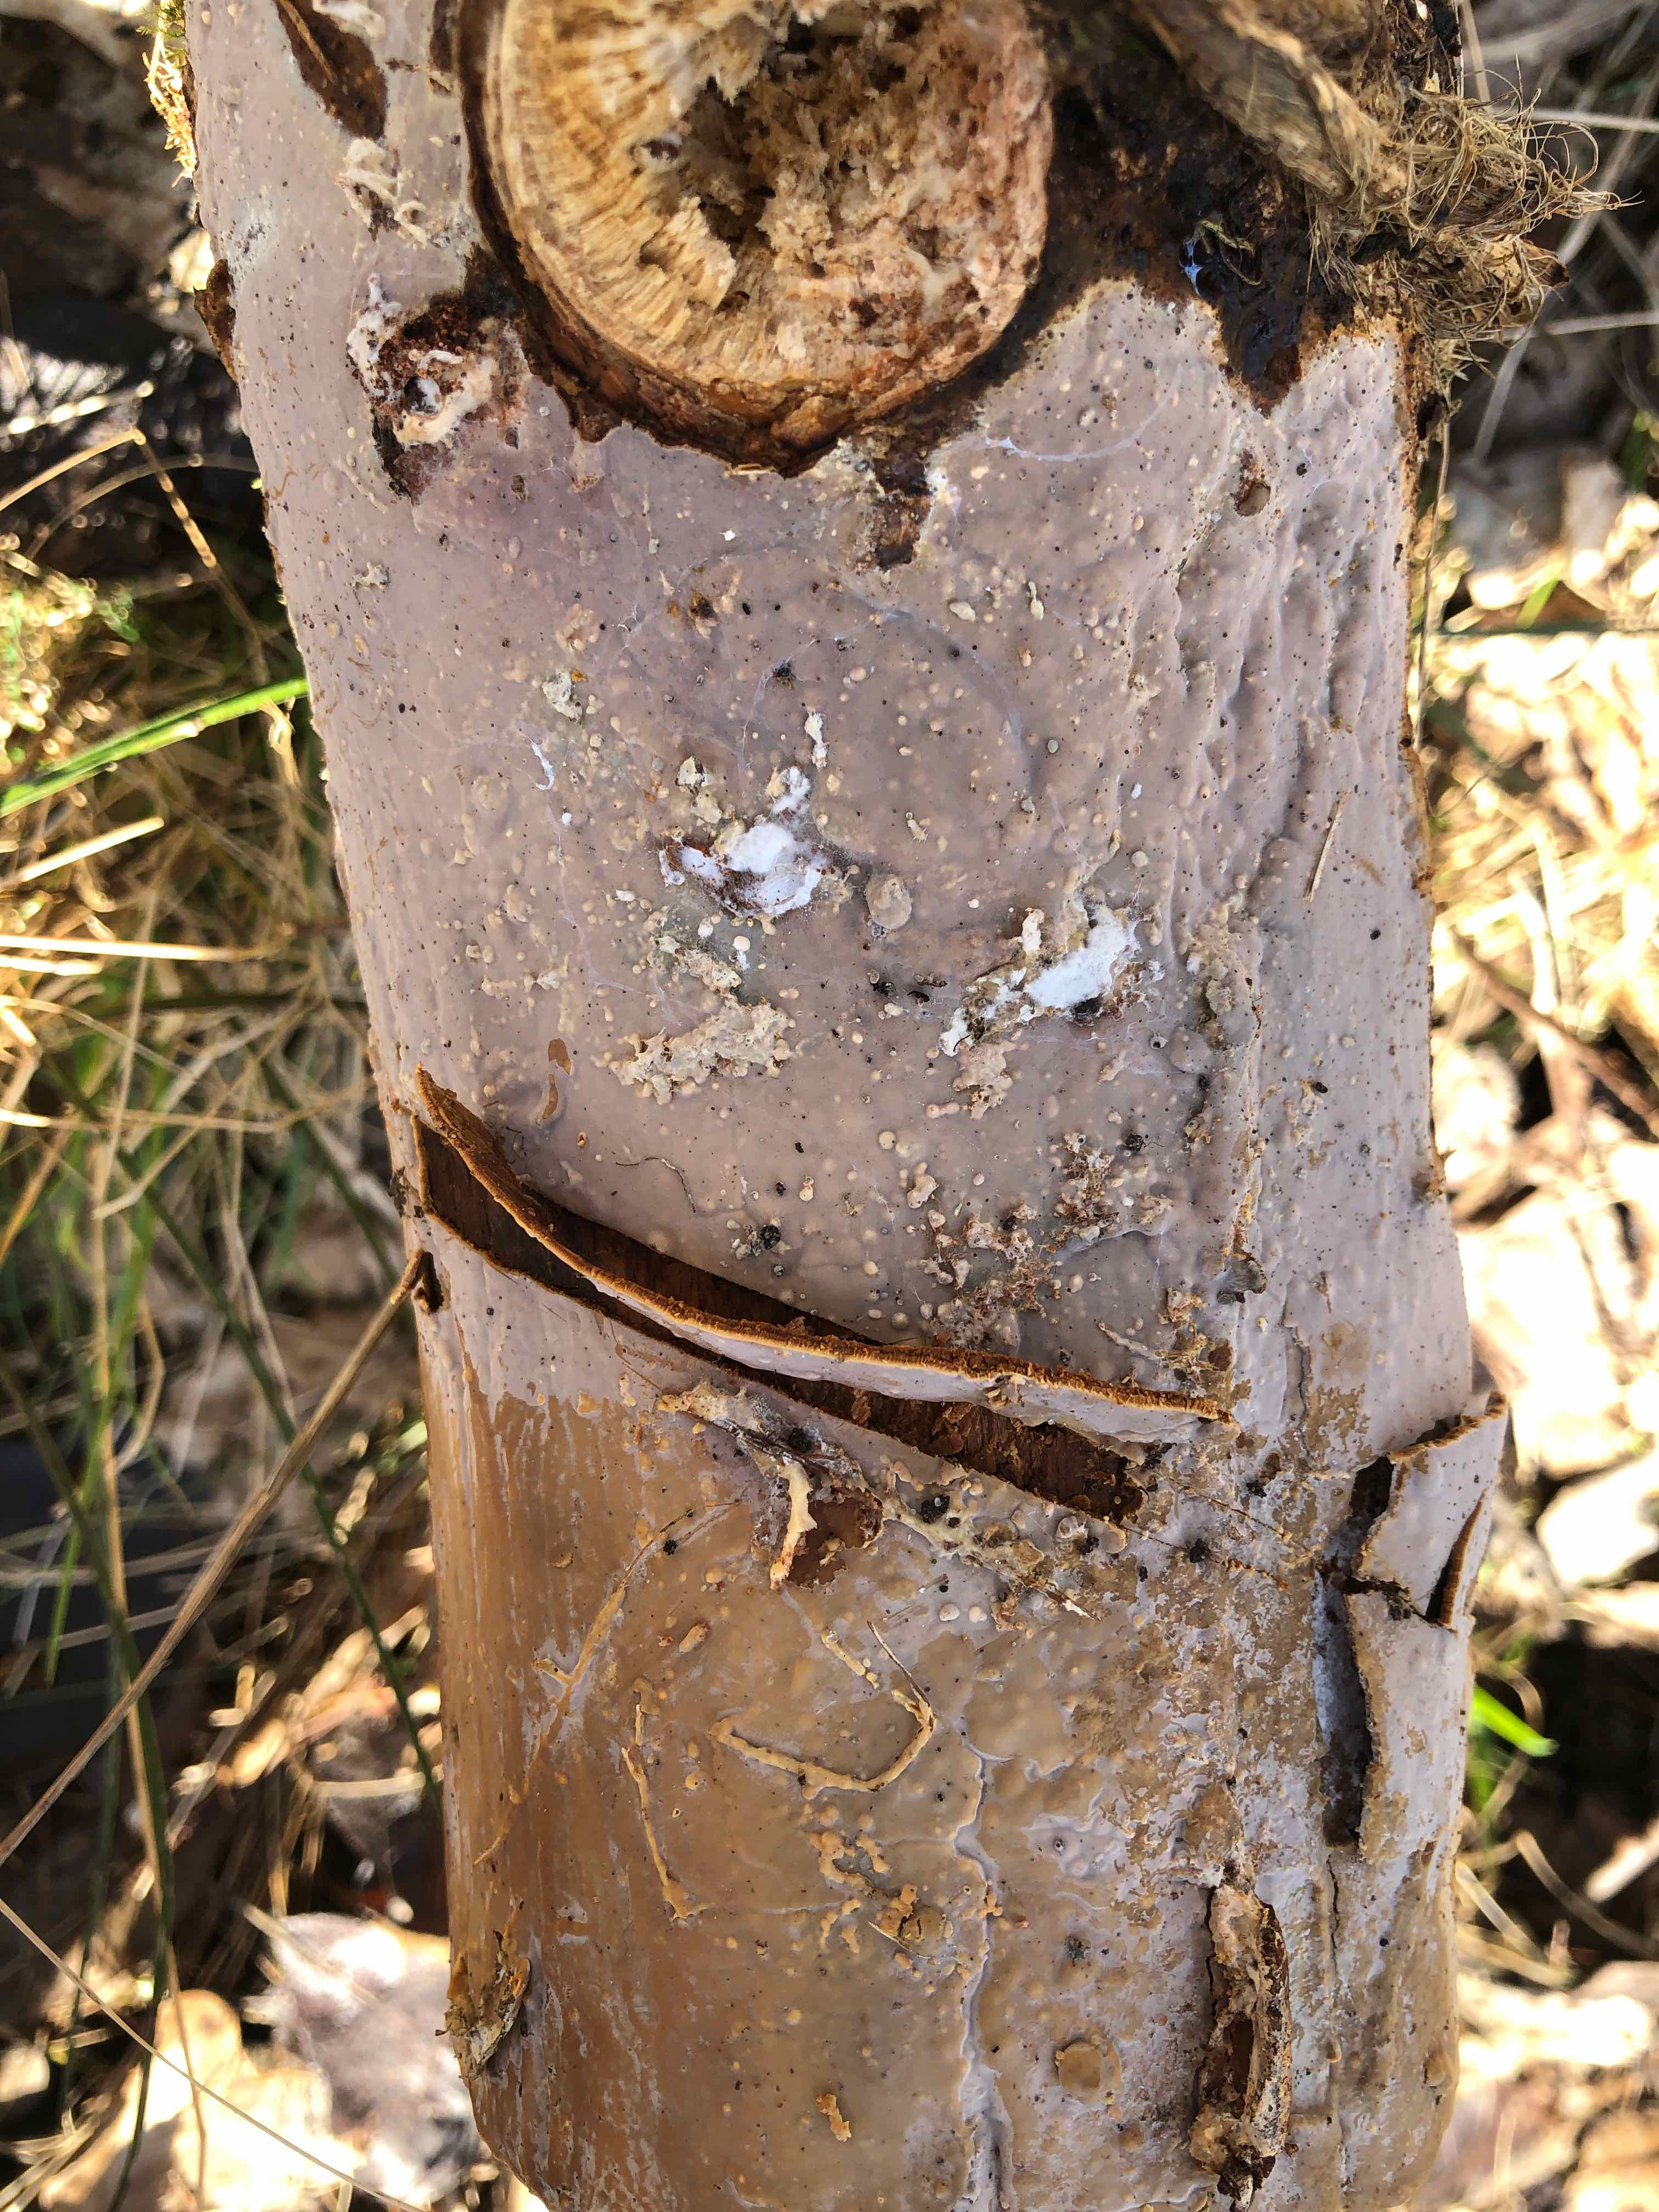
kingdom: Fungi
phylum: Basidiomycota
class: Agaricomycetes
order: Russulales
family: Peniophoraceae
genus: Scytinostroma
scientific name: Scytinostroma hemidichophyticum
